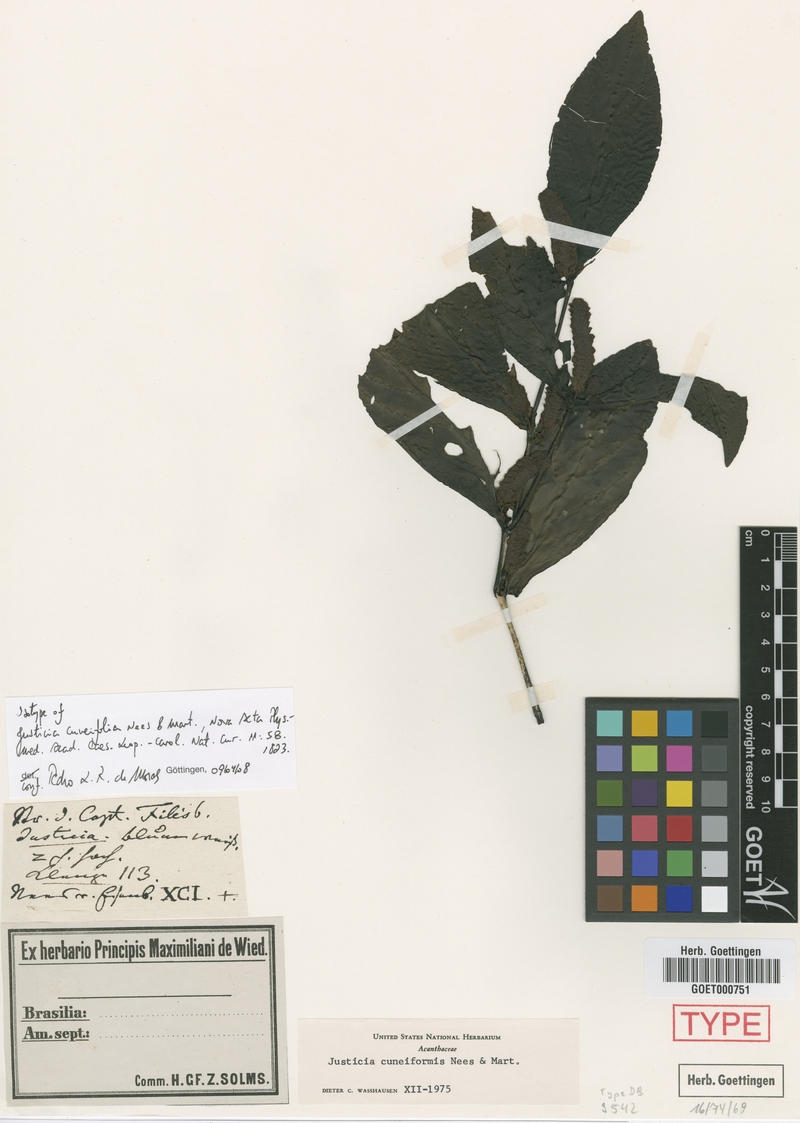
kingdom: Plantae
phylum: Tracheophyta
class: Magnoliopsida
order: Lamiales
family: Acanthaceae
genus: Justicia
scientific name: Justicia cuneifolia
